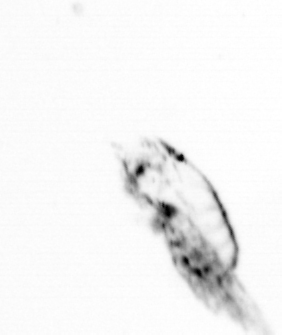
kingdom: Animalia
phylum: Arthropoda
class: Copepoda
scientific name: Copepoda
